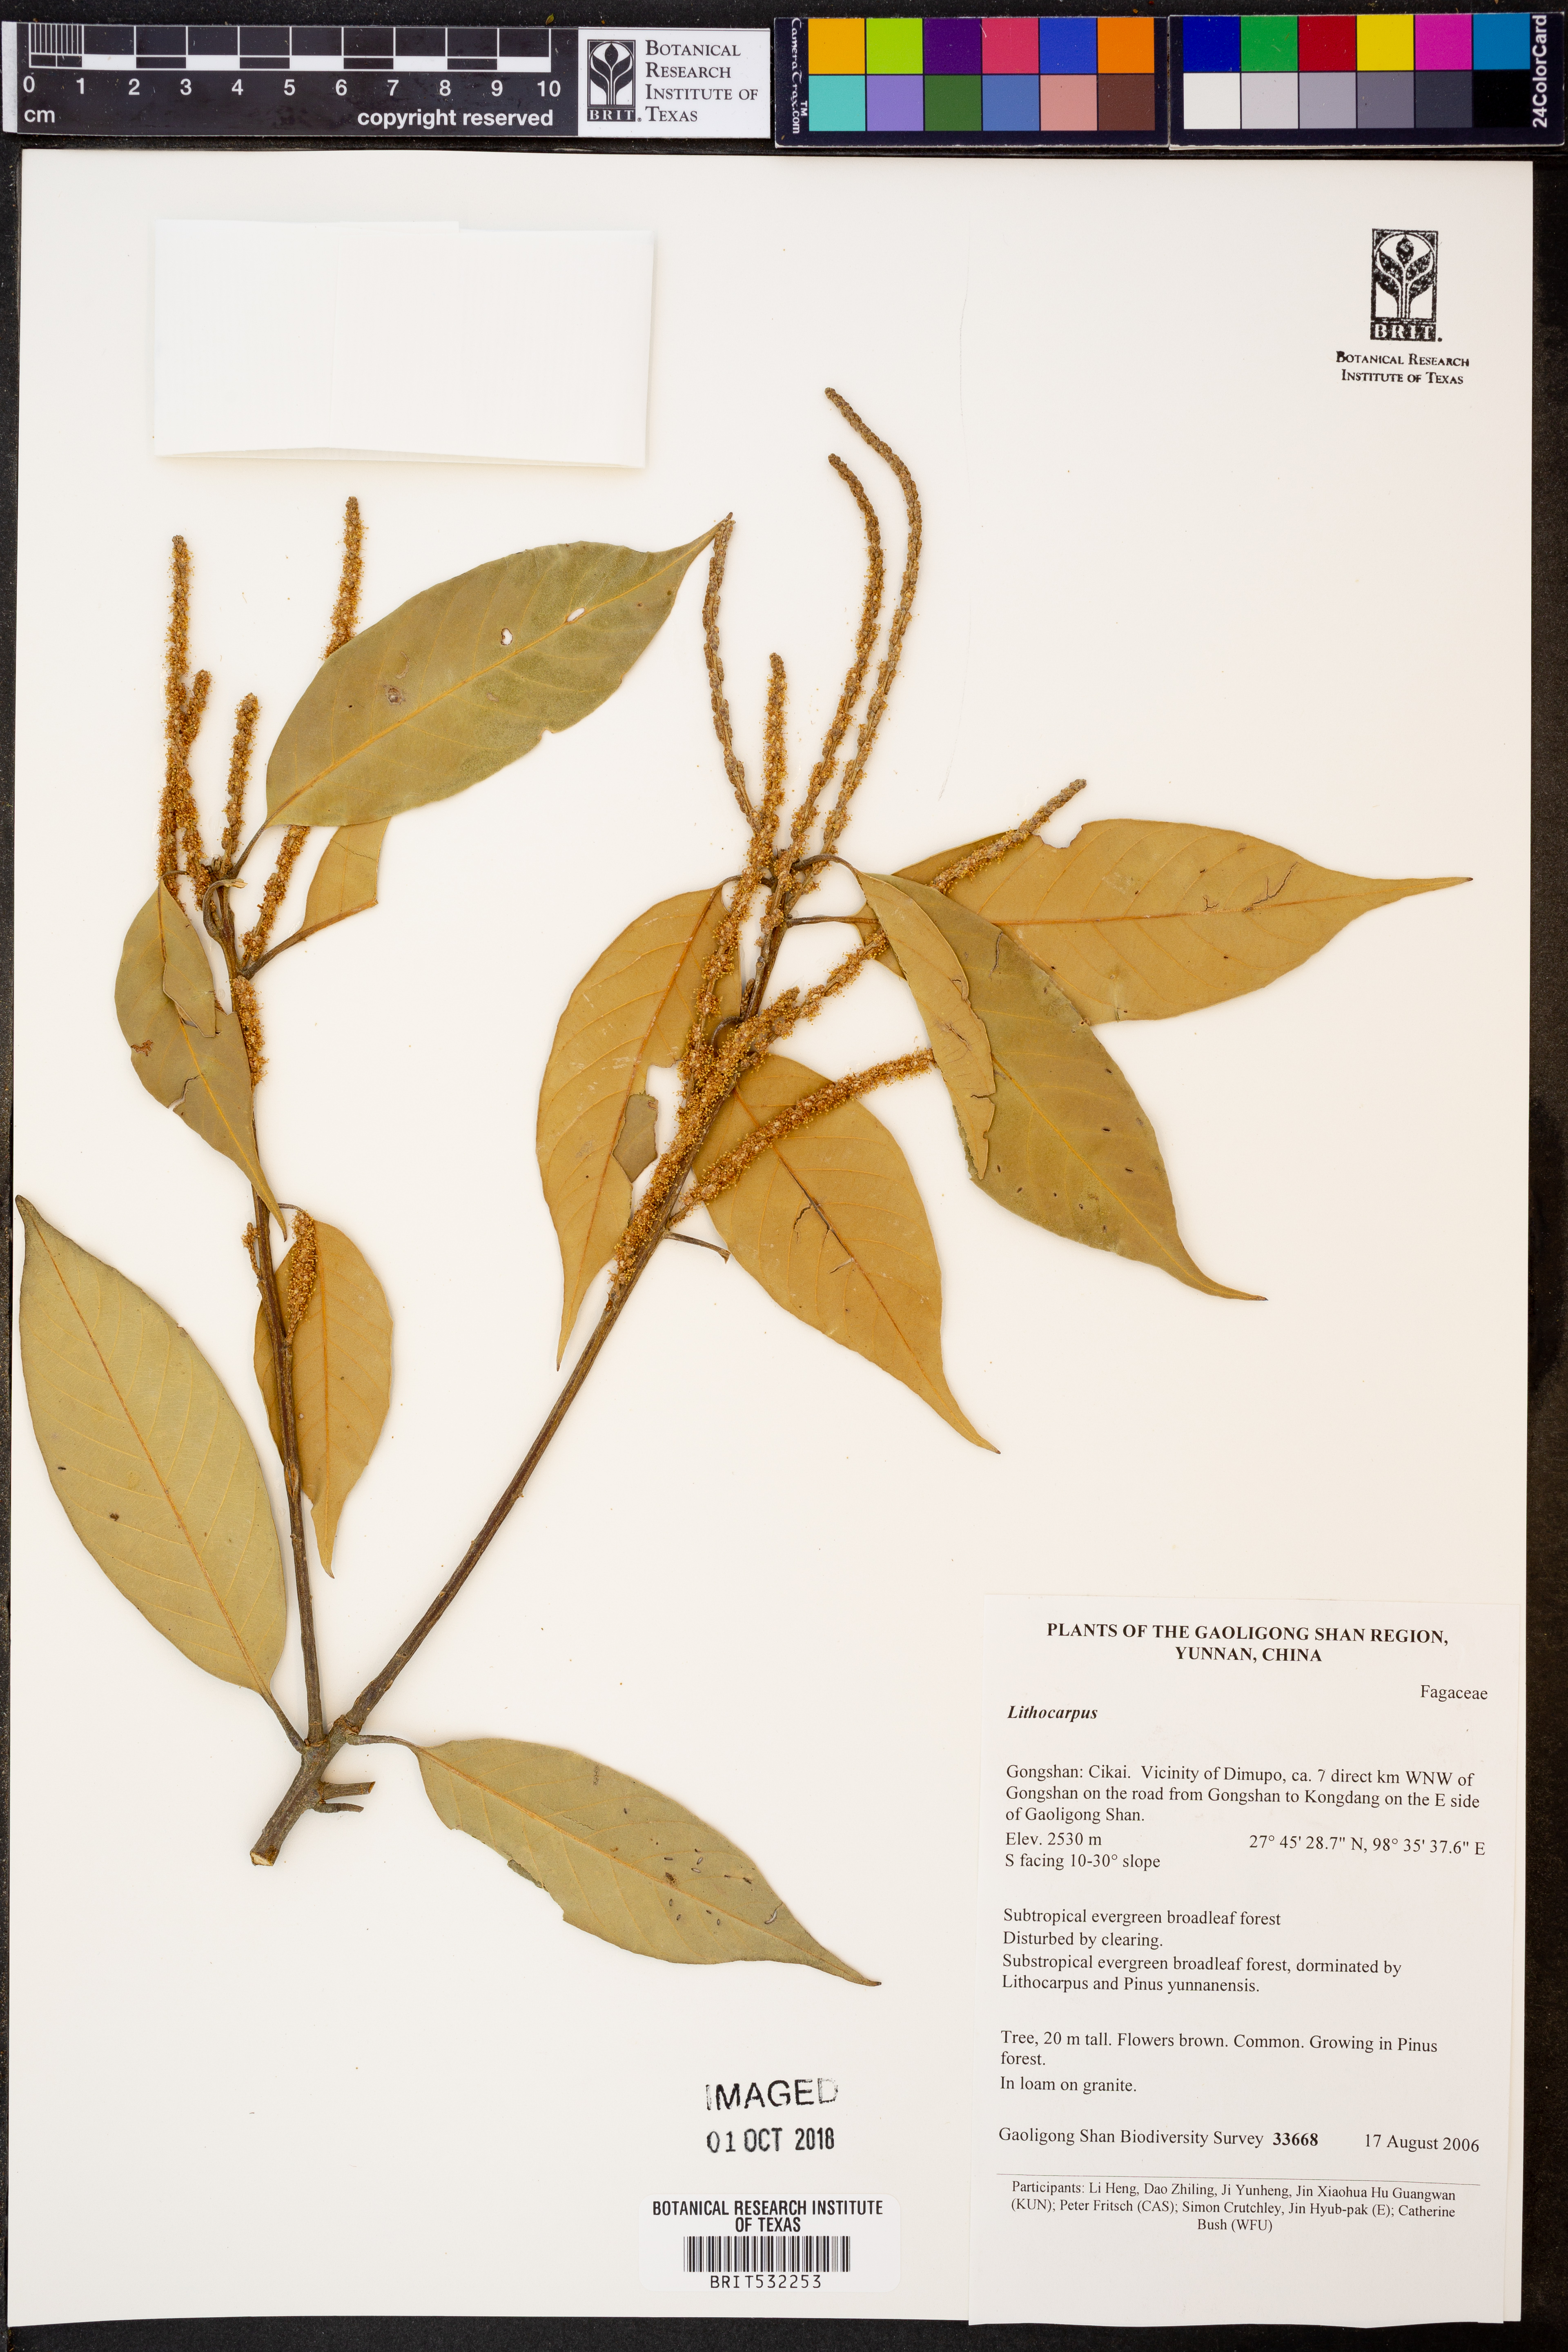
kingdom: Plantae
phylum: Tracheophyta
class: Magnoliopsida
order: Fagales
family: Fagaceae
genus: Lithocarpus
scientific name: Lithocarpus
